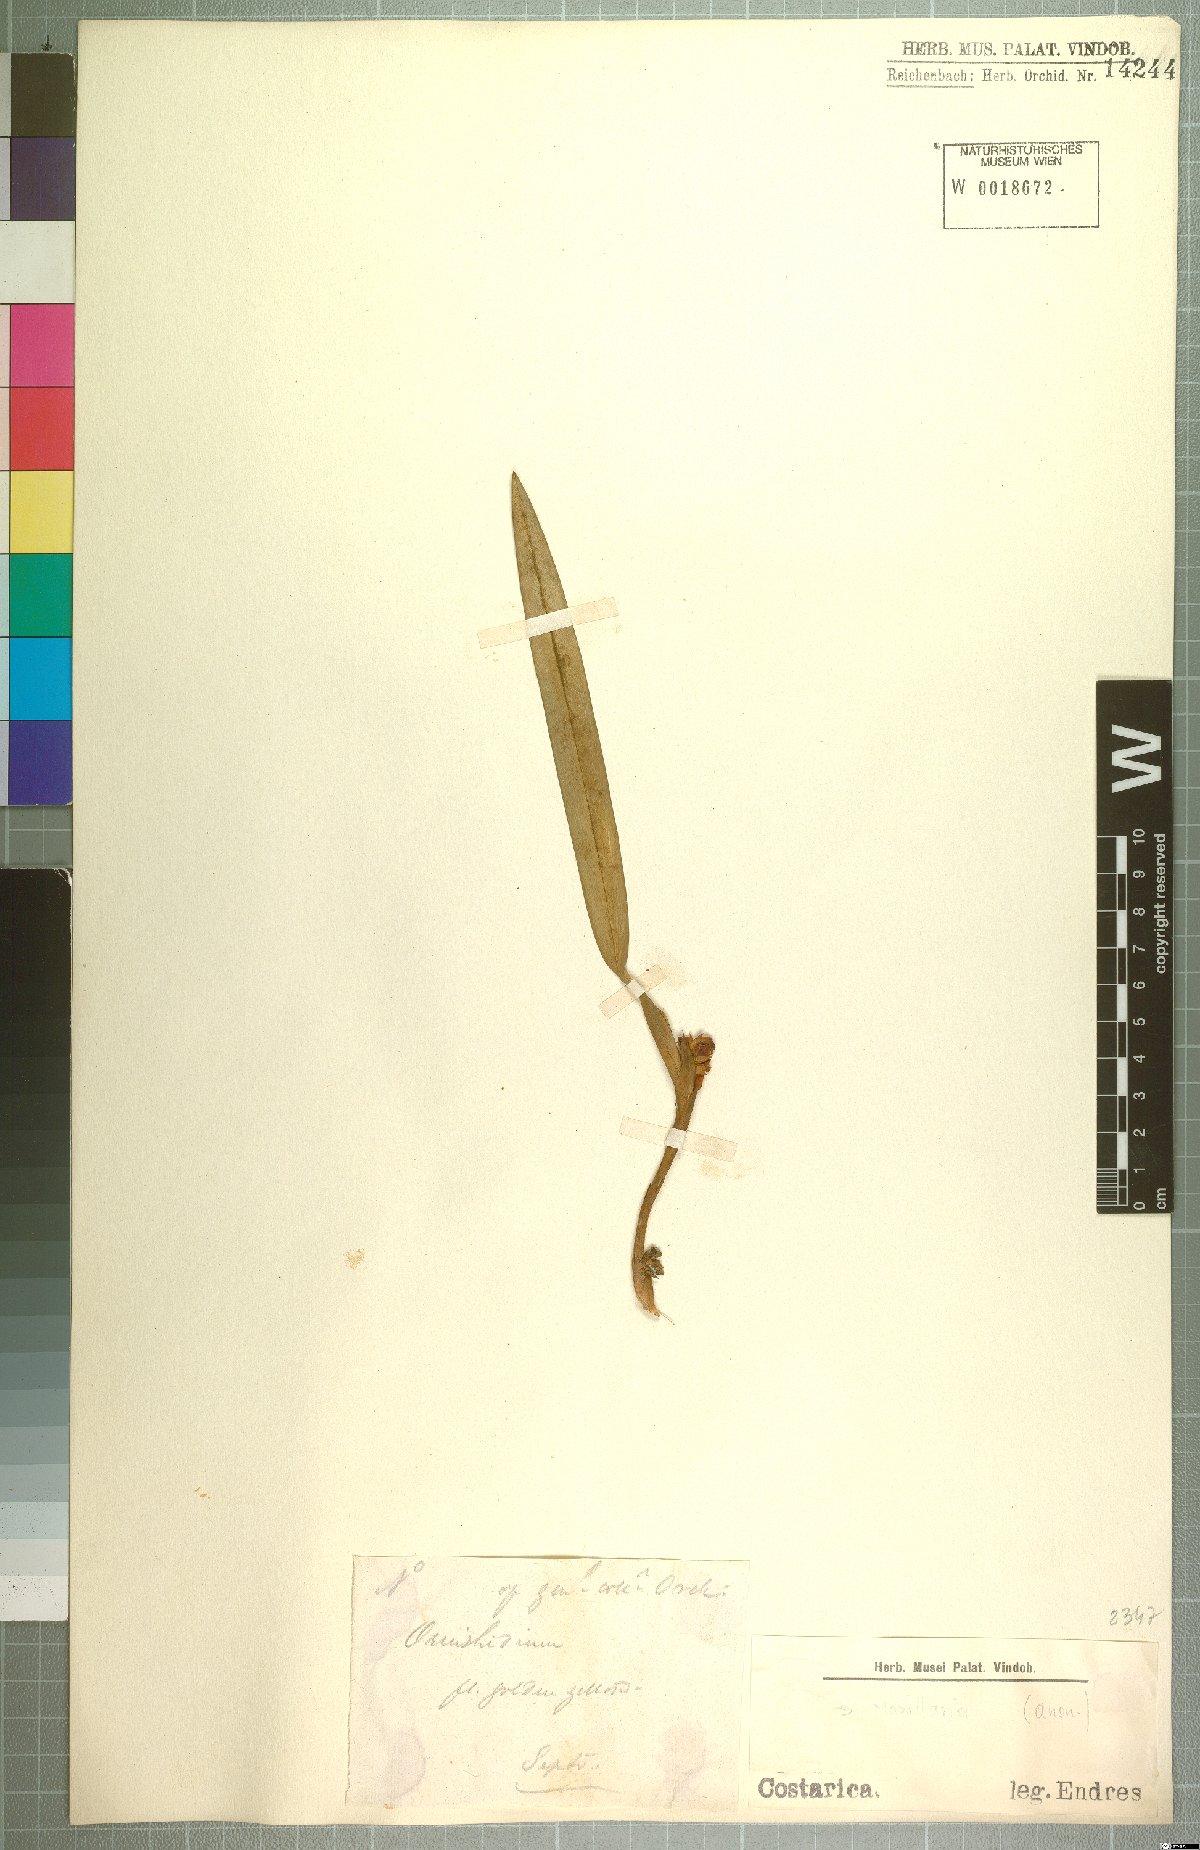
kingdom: Plantae
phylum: Tracheophyta
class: Liliopsida
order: Asparagales
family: Orchidaceae
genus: Maxillaria
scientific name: Maxillaria
